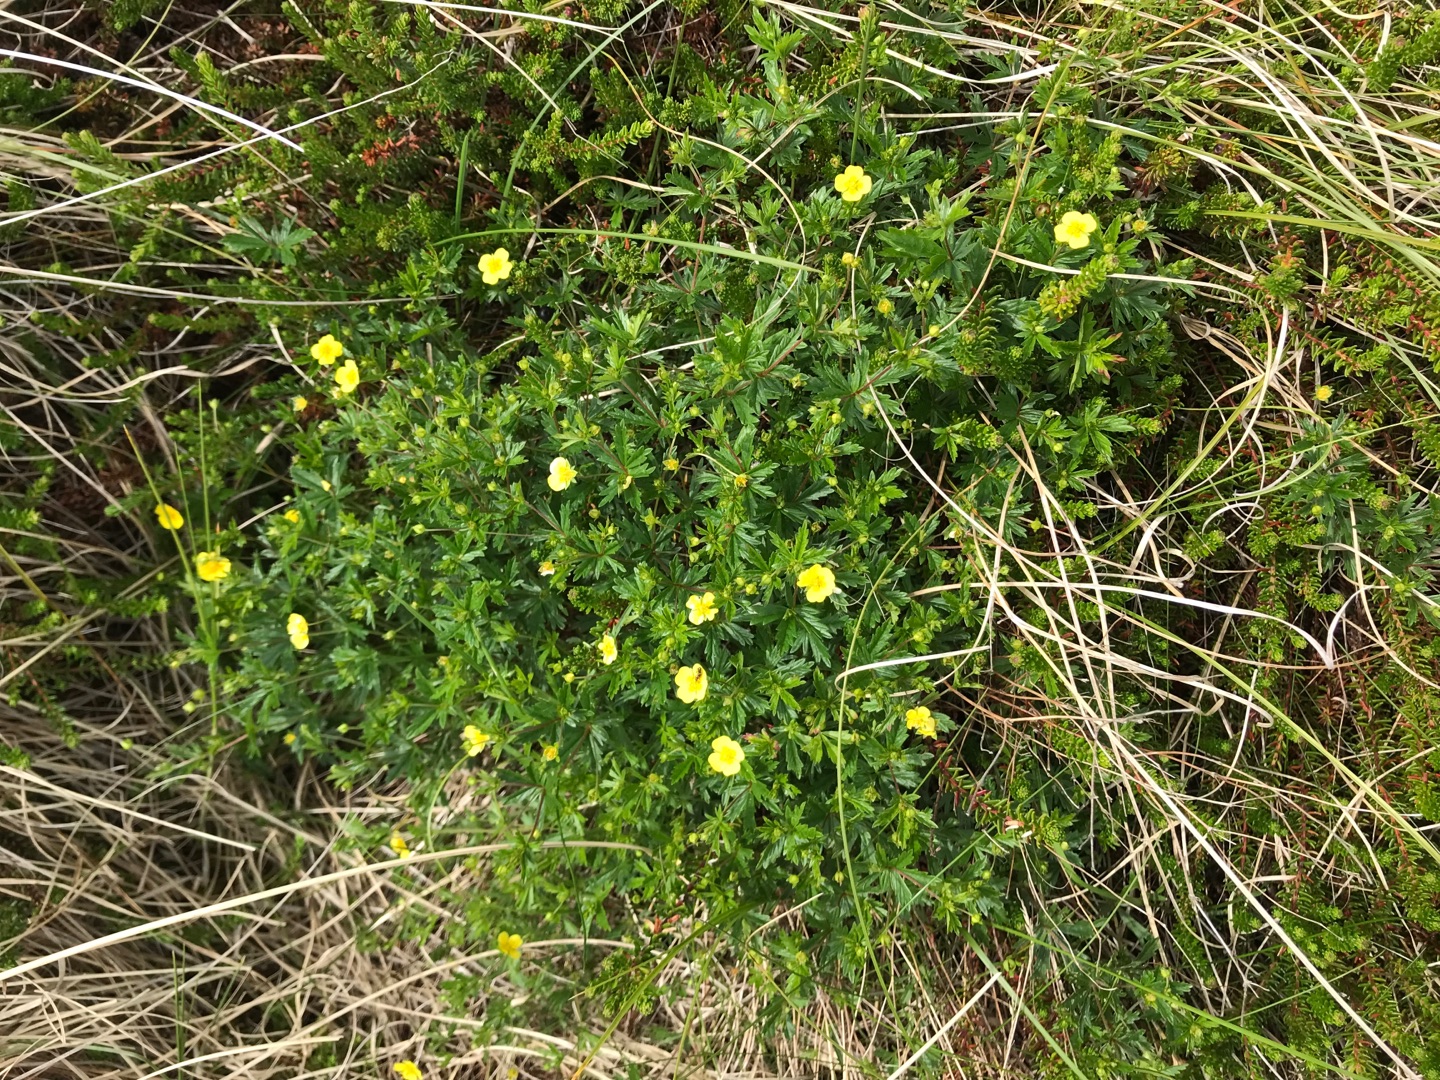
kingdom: Plantae
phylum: Tracheophyta
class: Magnoliopsida
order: Rosales
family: Rosaceae
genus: Potentilla
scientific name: Potentilla erecta
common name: Tormentil
